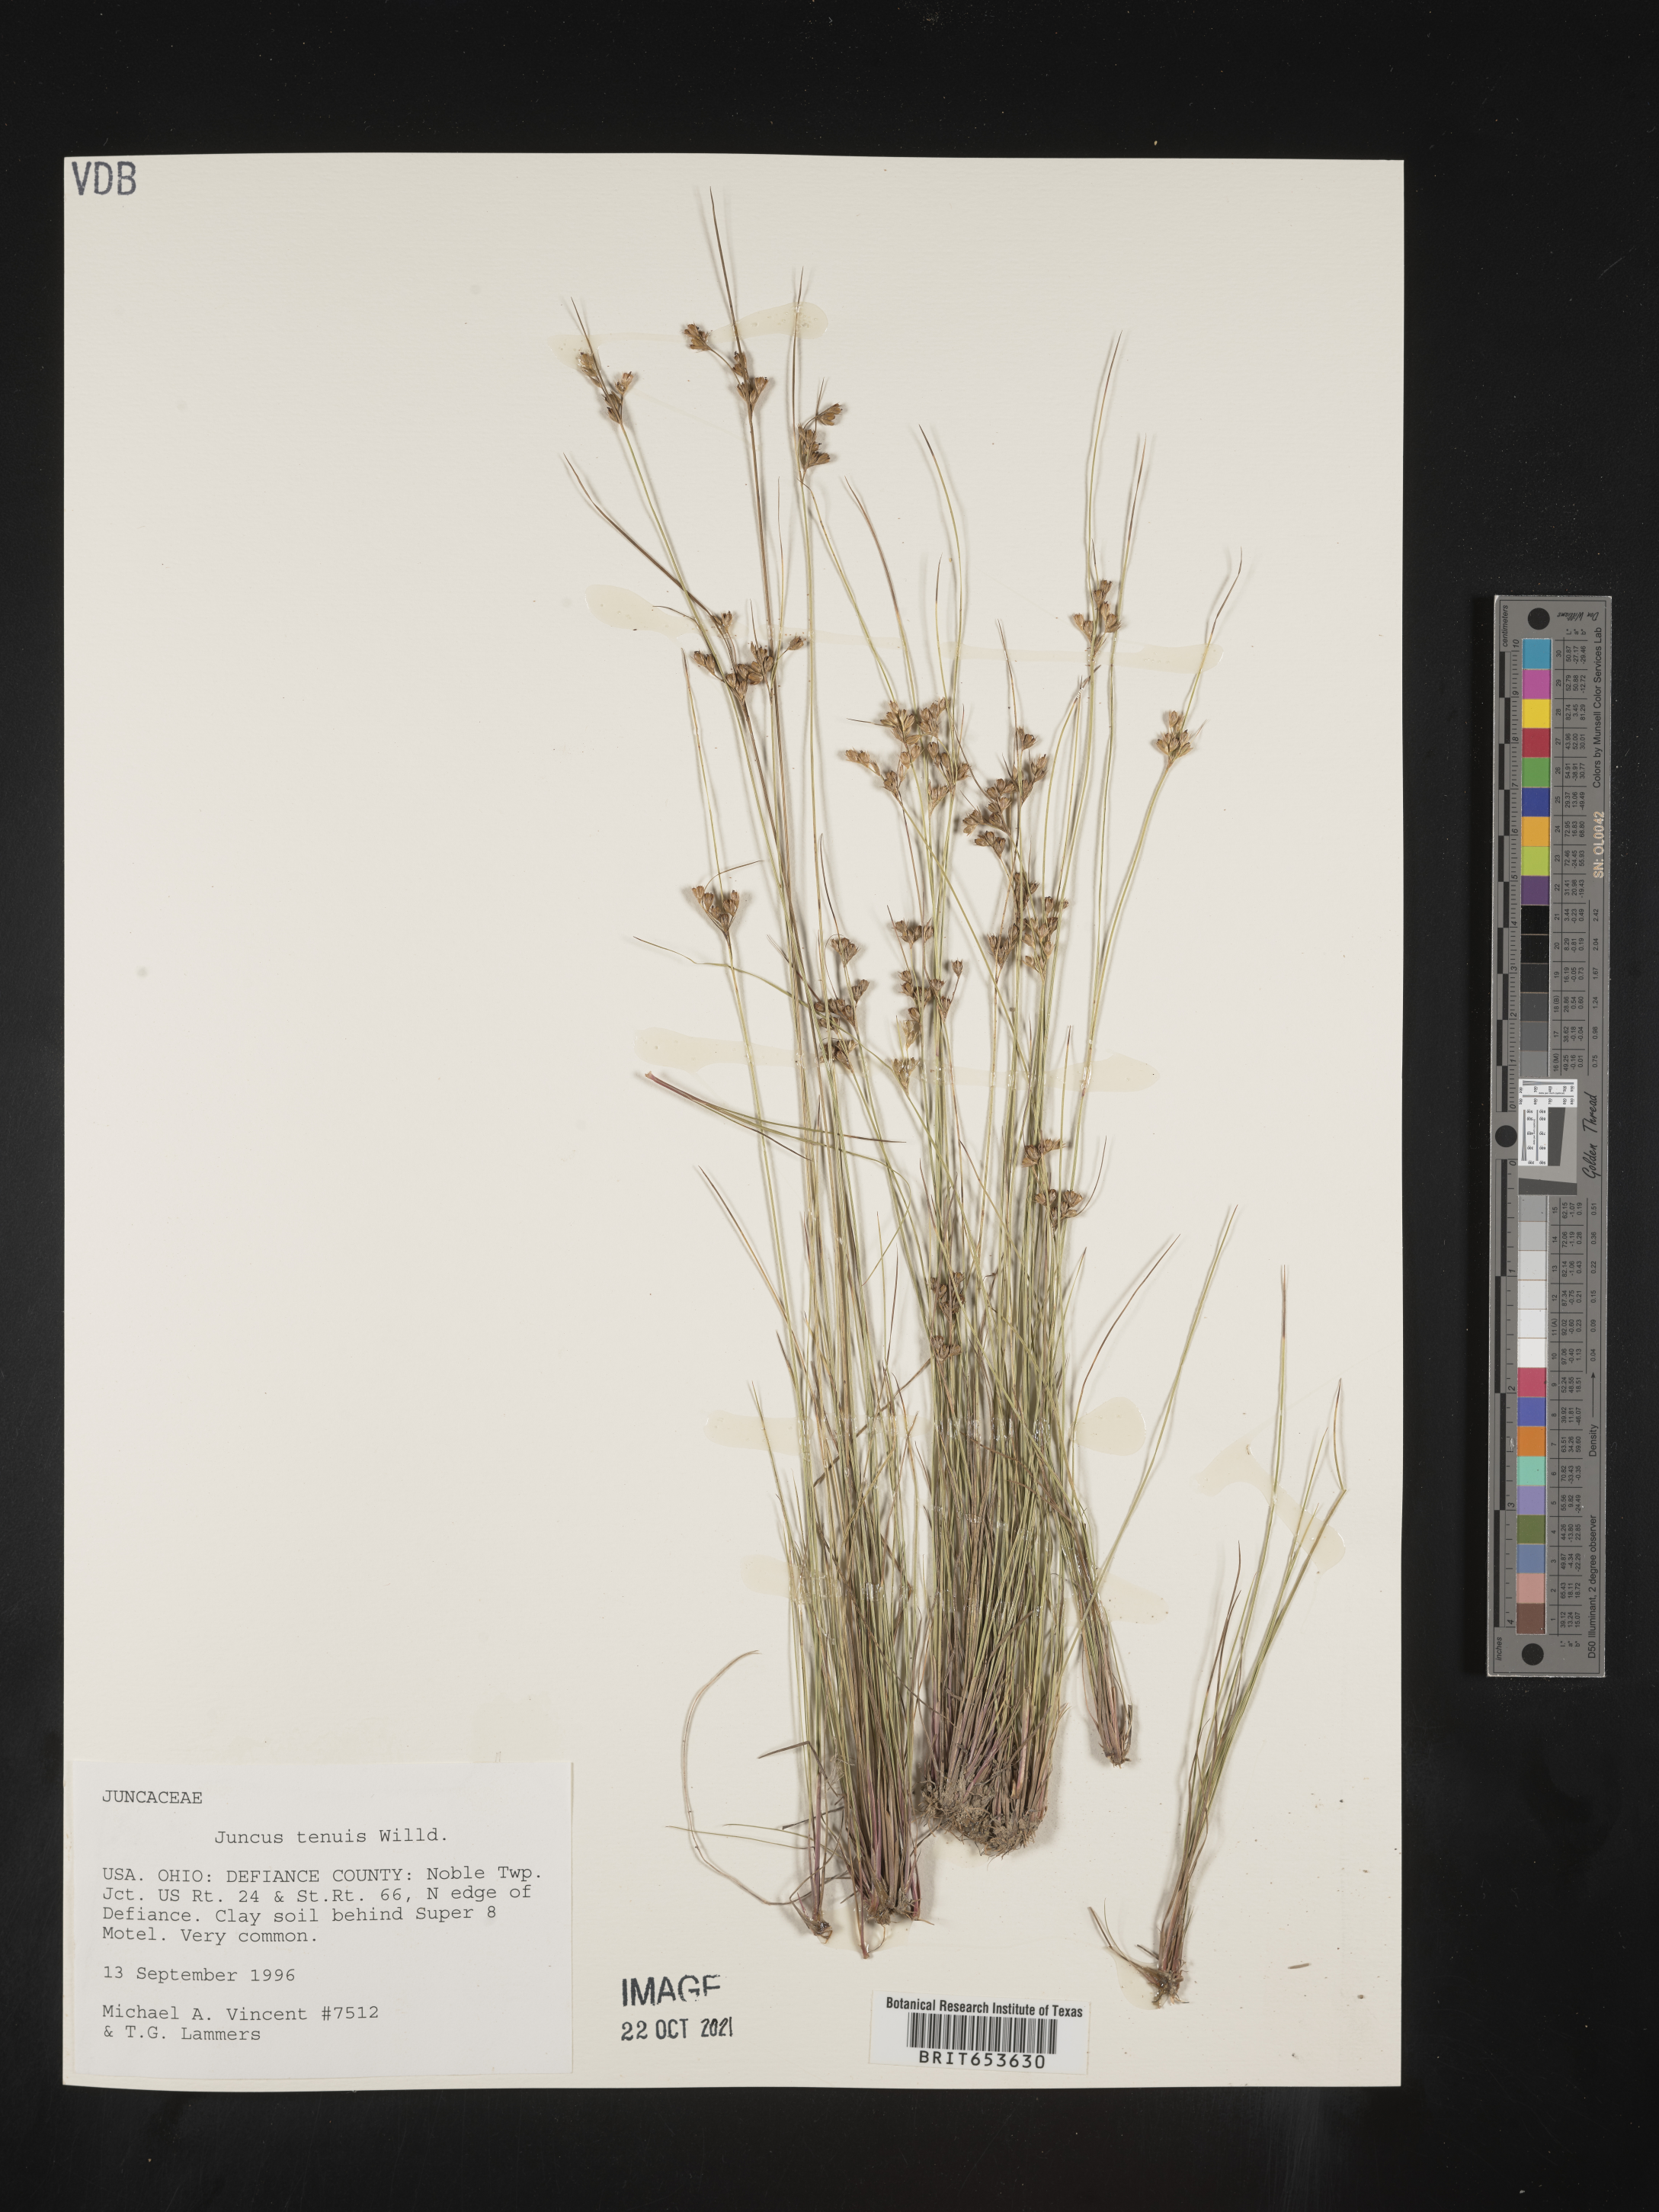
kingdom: Plantae
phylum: Tracheophyta
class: Liliopsida
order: Poales
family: Juncaceae
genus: Juncus
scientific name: Juncus tenuis
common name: Slender rush
